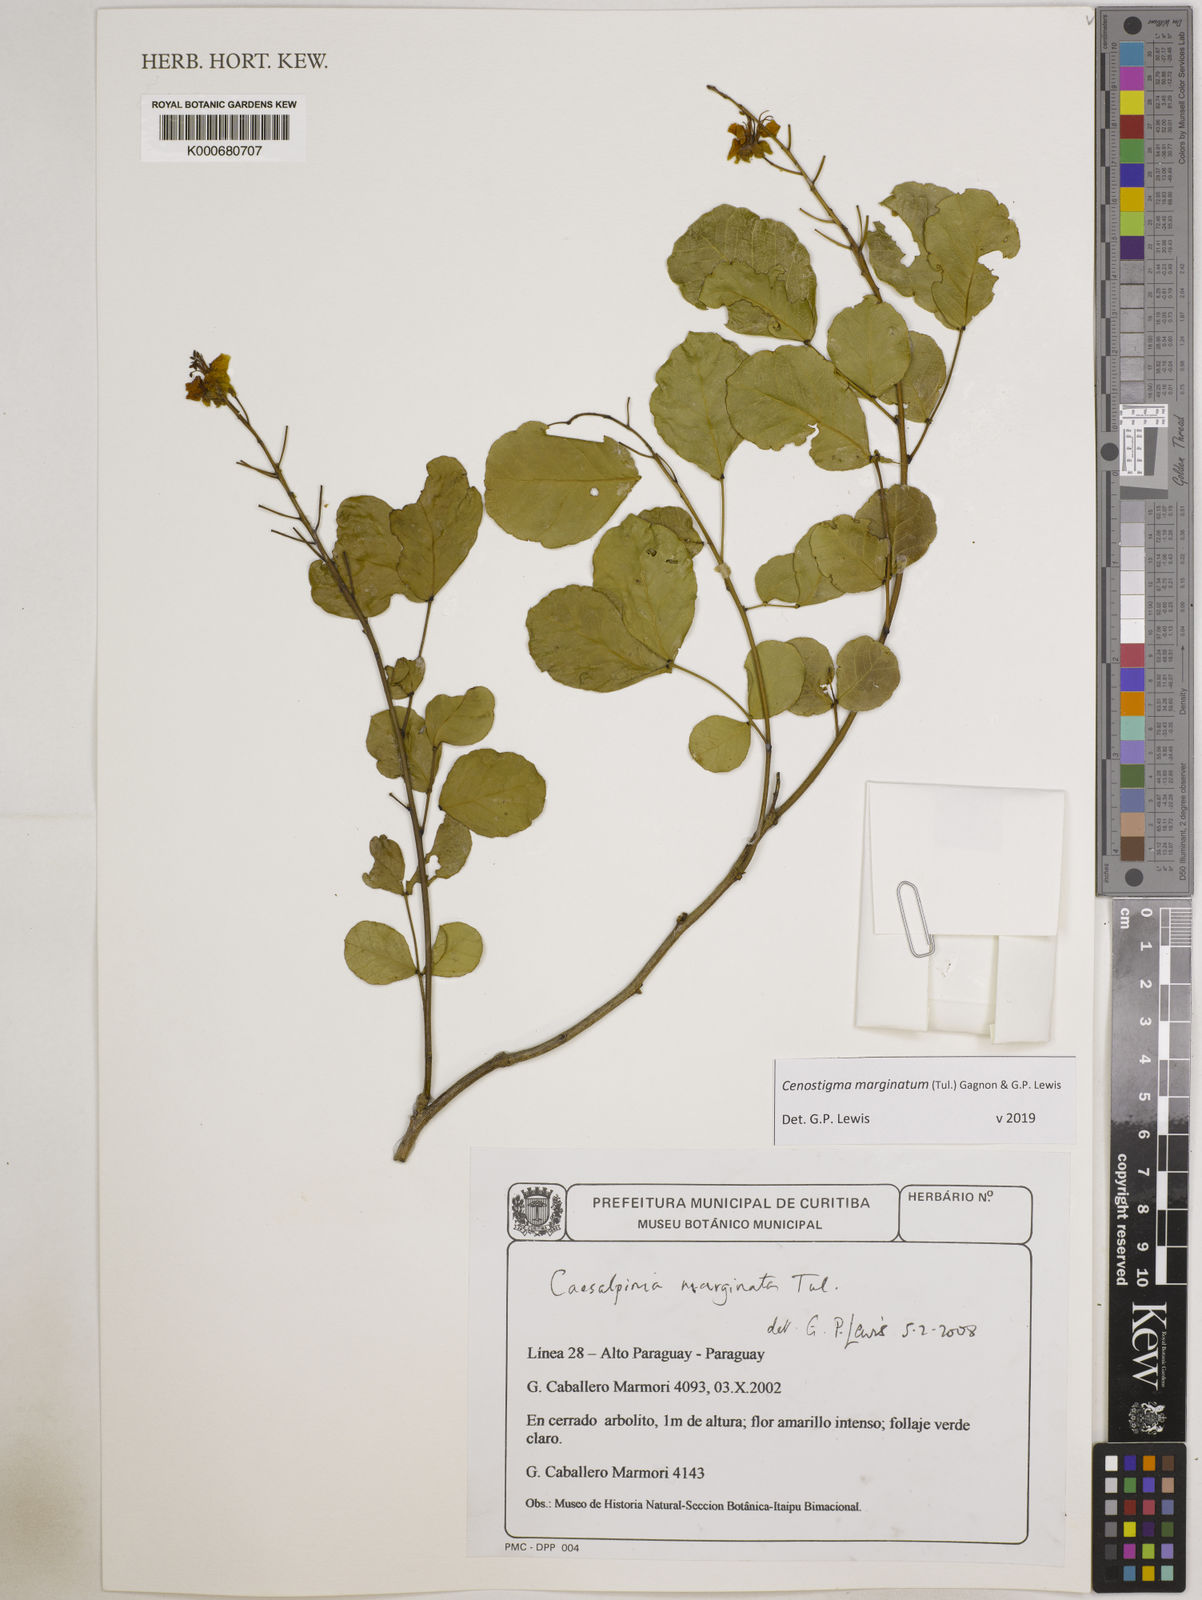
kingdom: Plantae
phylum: Tracheophyta
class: Magnoliopsida
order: Fabales
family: Fabaceae
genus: Cenostigma
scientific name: Cenostigma marginatum
